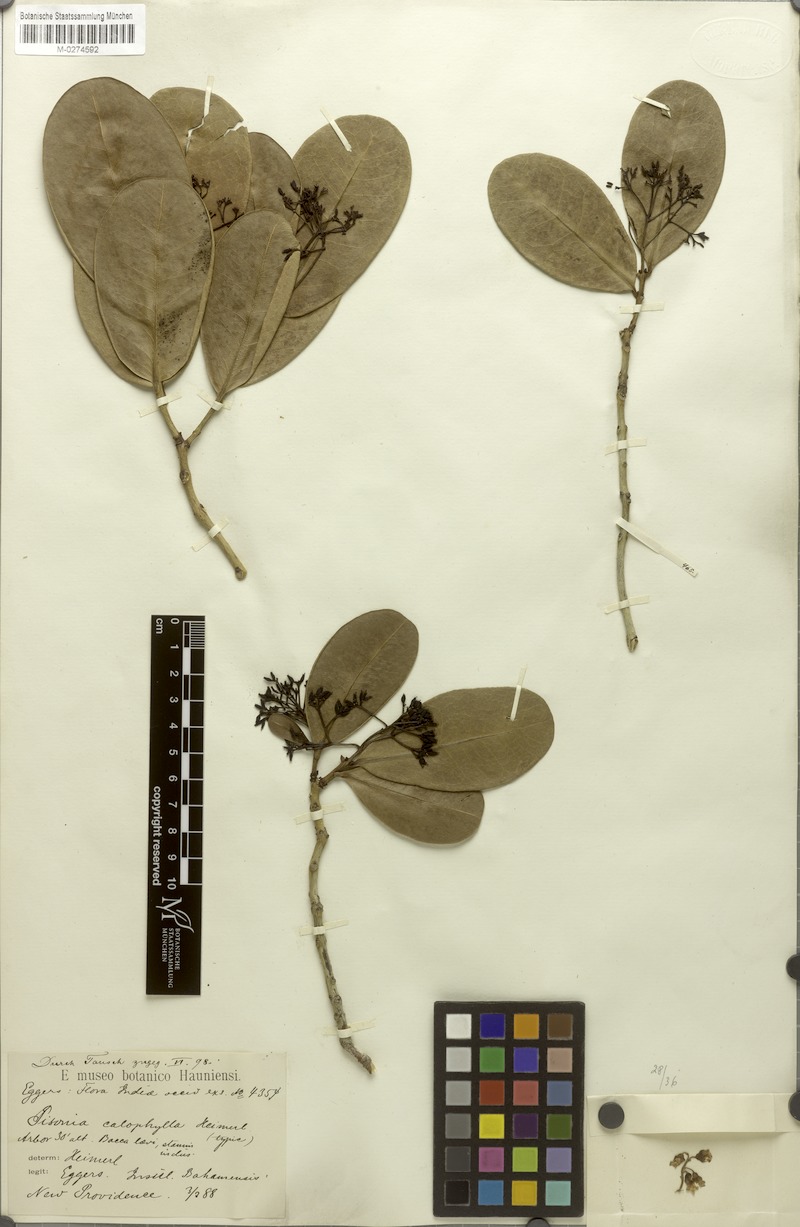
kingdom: Plantae
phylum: Tracheophyta
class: Magnoliopsida
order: Caryophyllales
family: Nyctaginaceae
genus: Guapira
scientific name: Guapira obtusata
